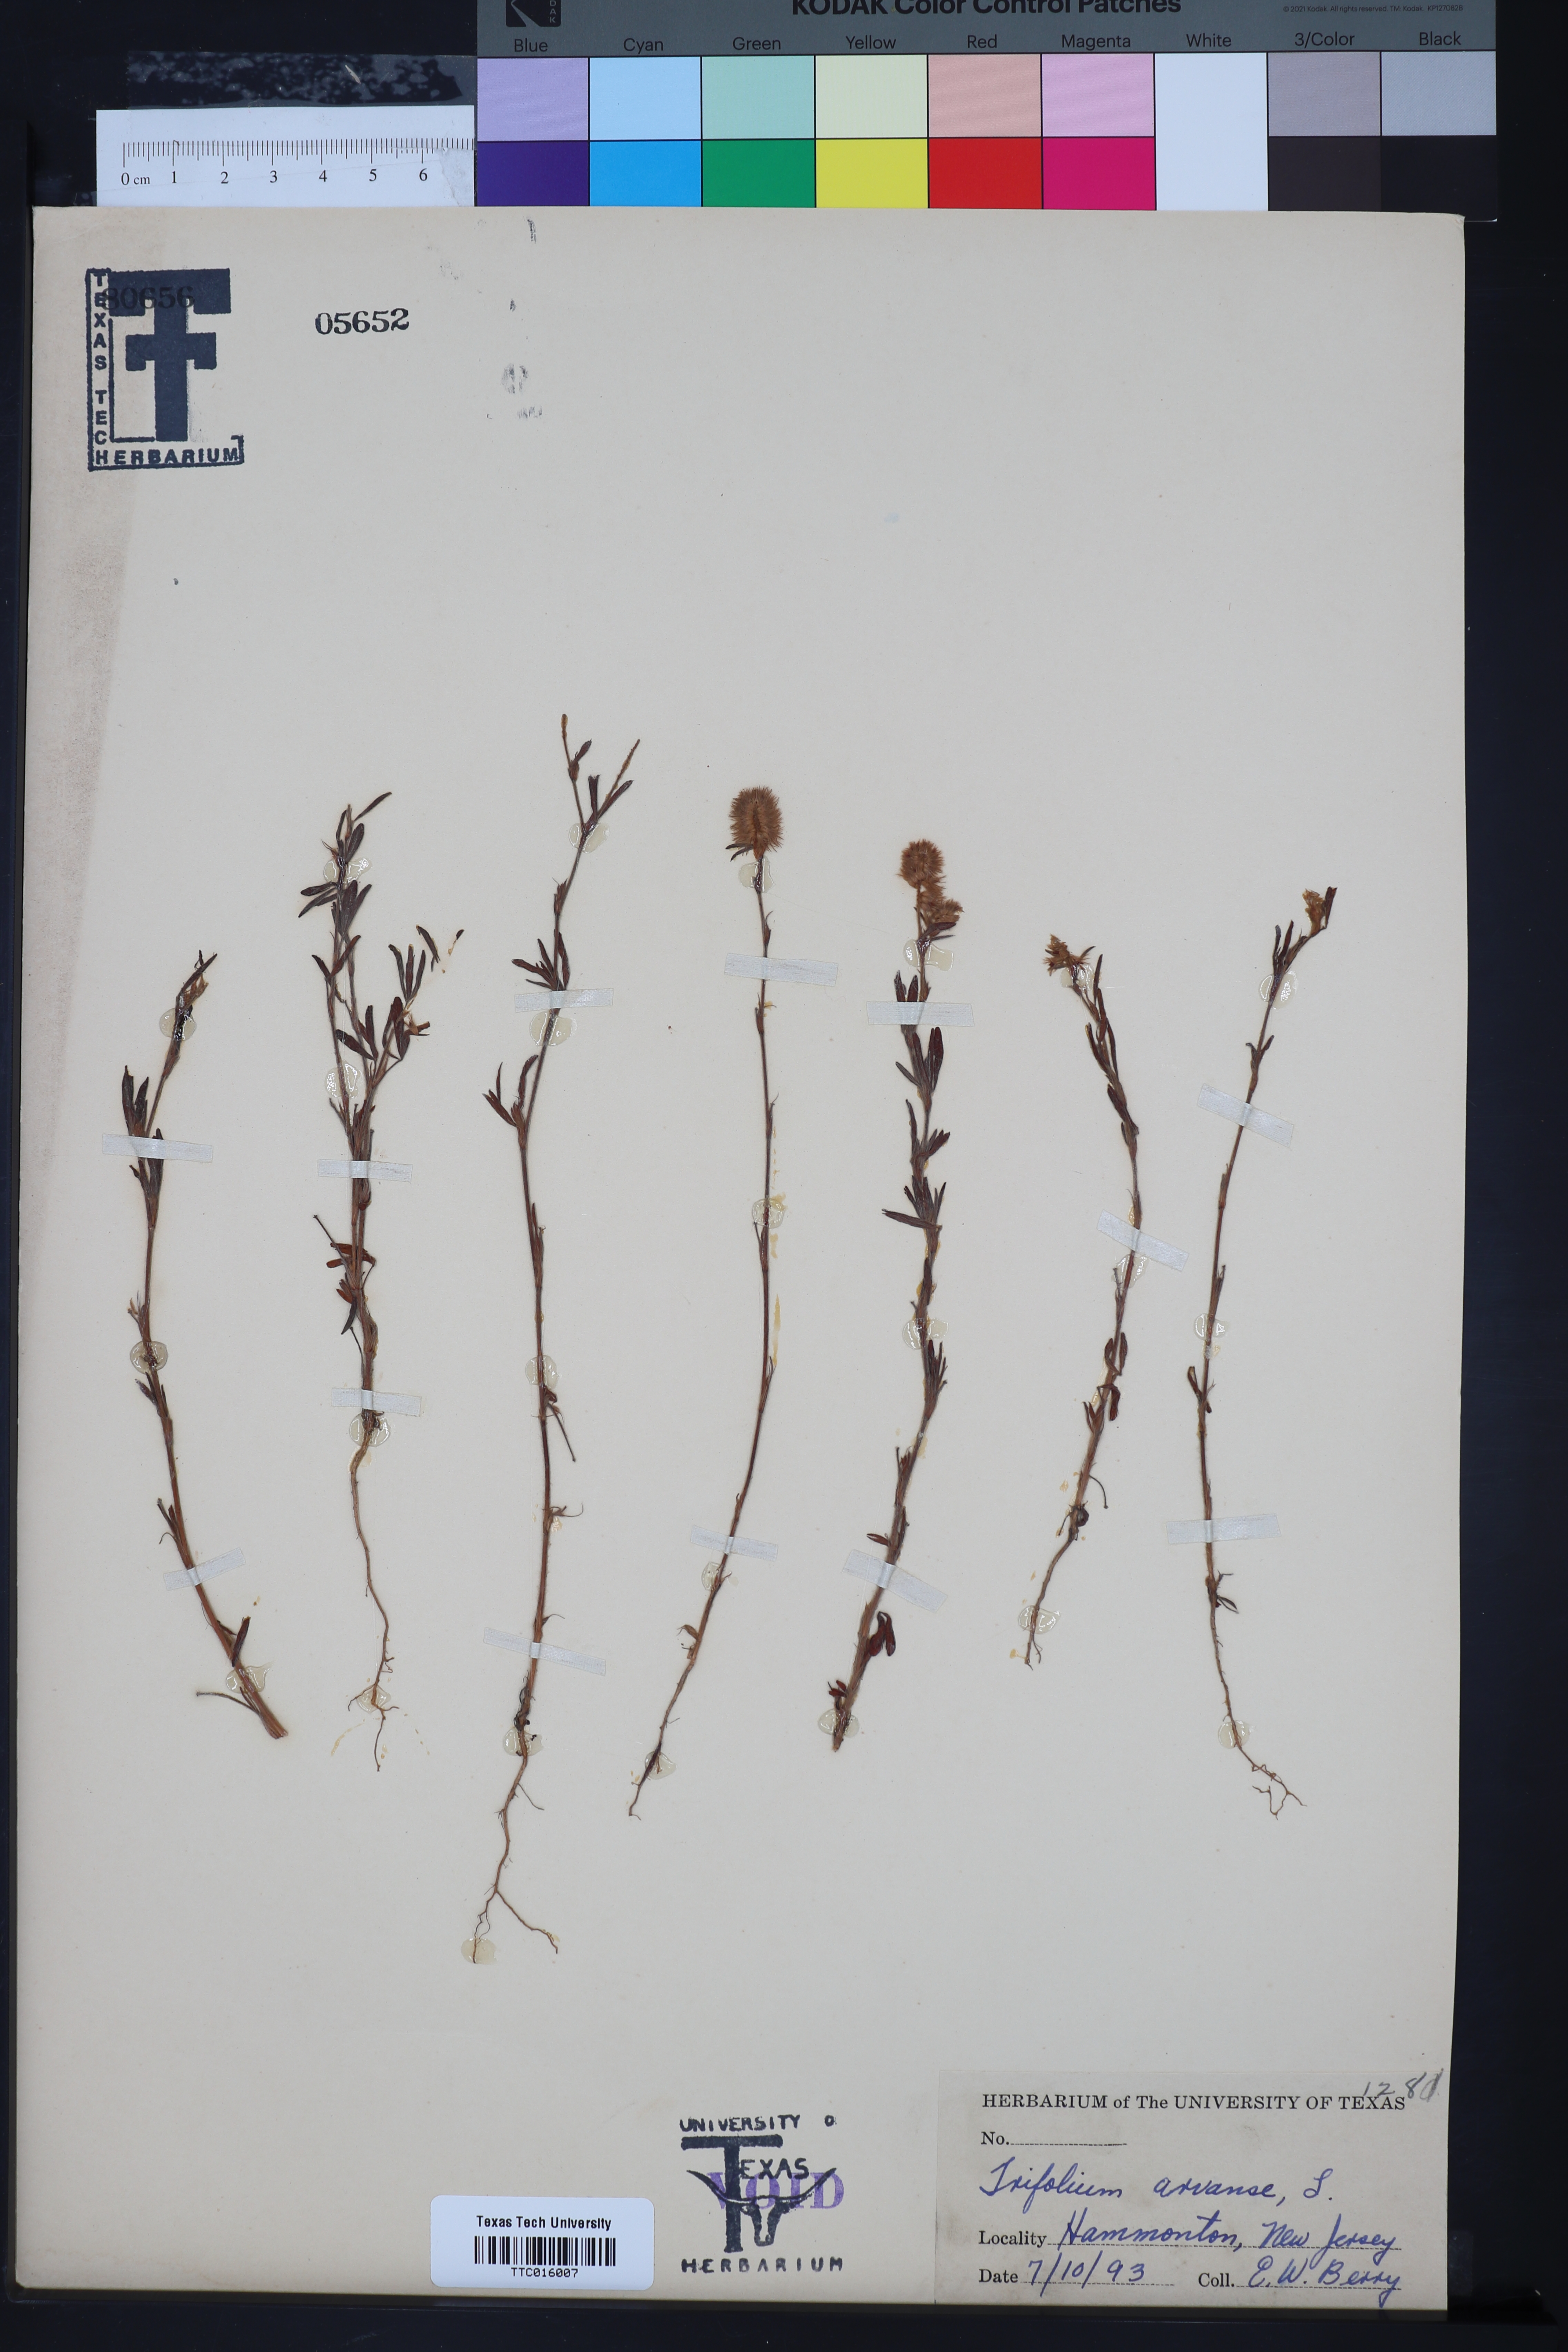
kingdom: Plantae
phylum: Tracheophyta
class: Magnoliopsida
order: Fabales
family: Fabaceae
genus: Trifolium
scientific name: Trifolium arvense
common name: Hare's-foot clover
